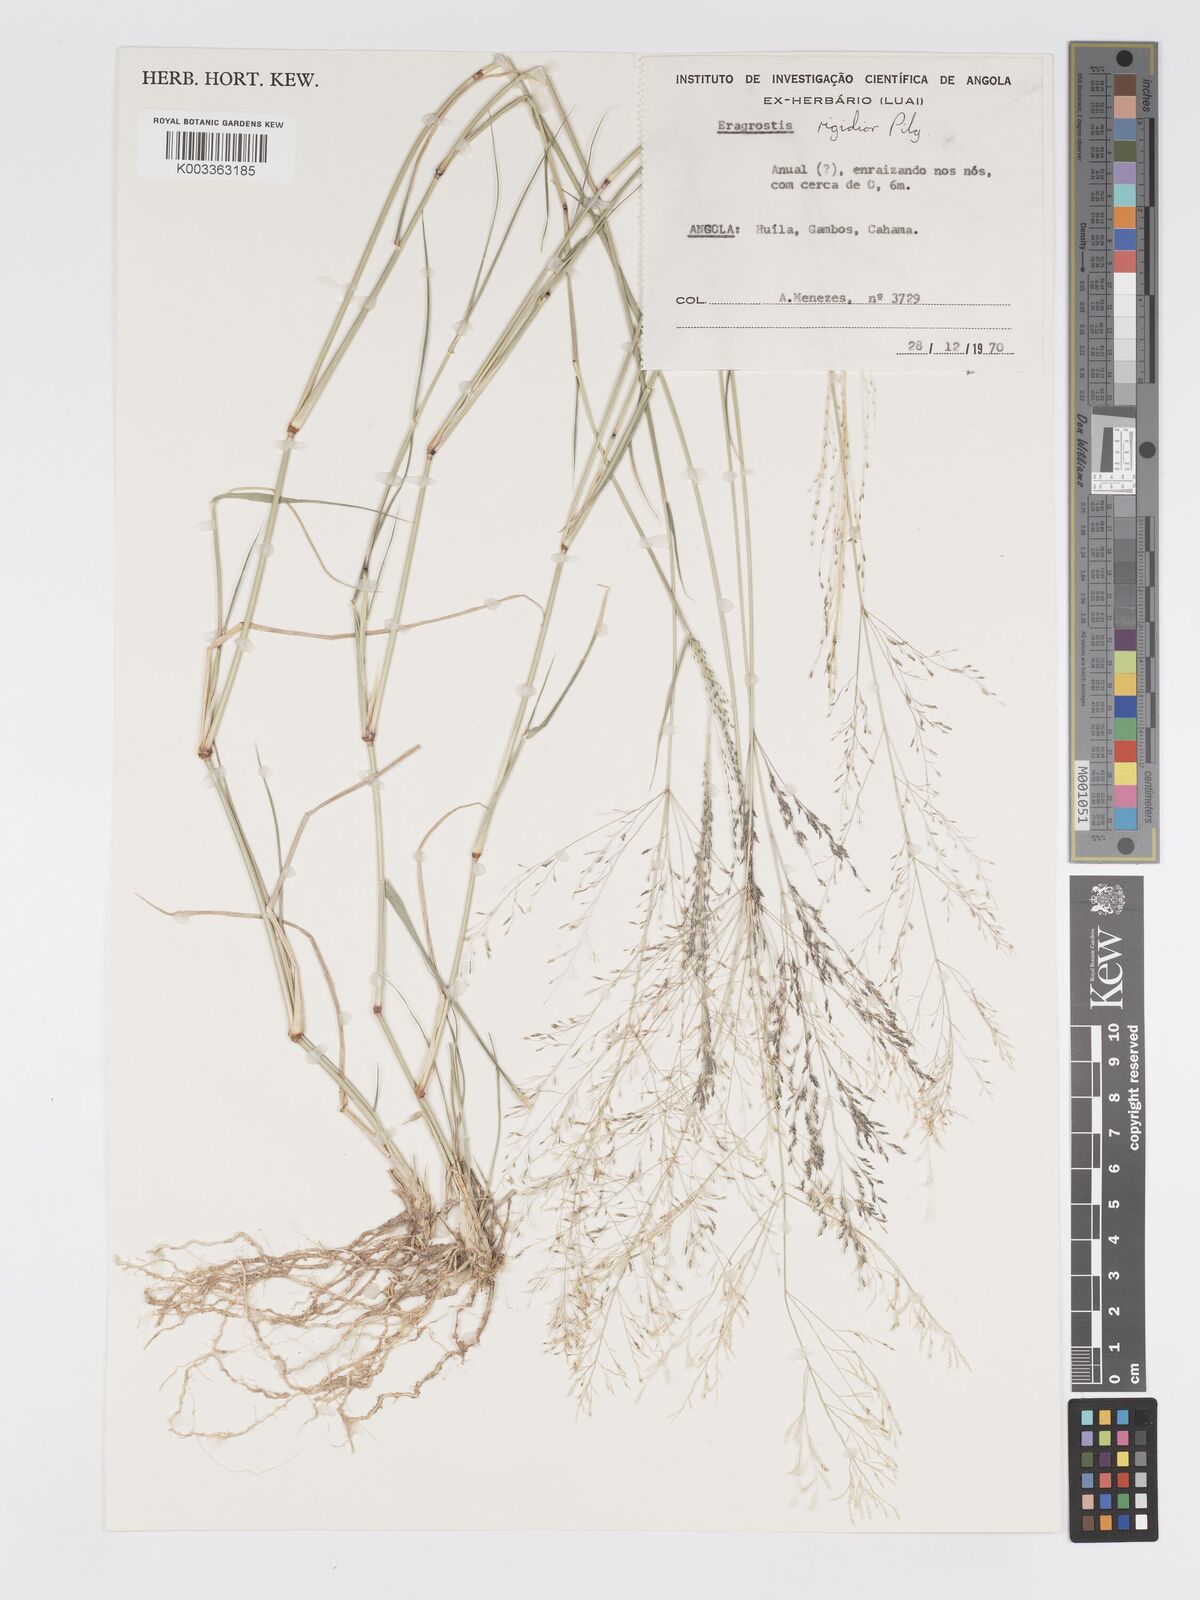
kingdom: Plantae
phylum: Tracheophyta
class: Liliopsida
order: Poales
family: Poaceae
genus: Eragrostis
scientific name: Eragrostis cylindriflora
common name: Cylinderflower lovegrass
